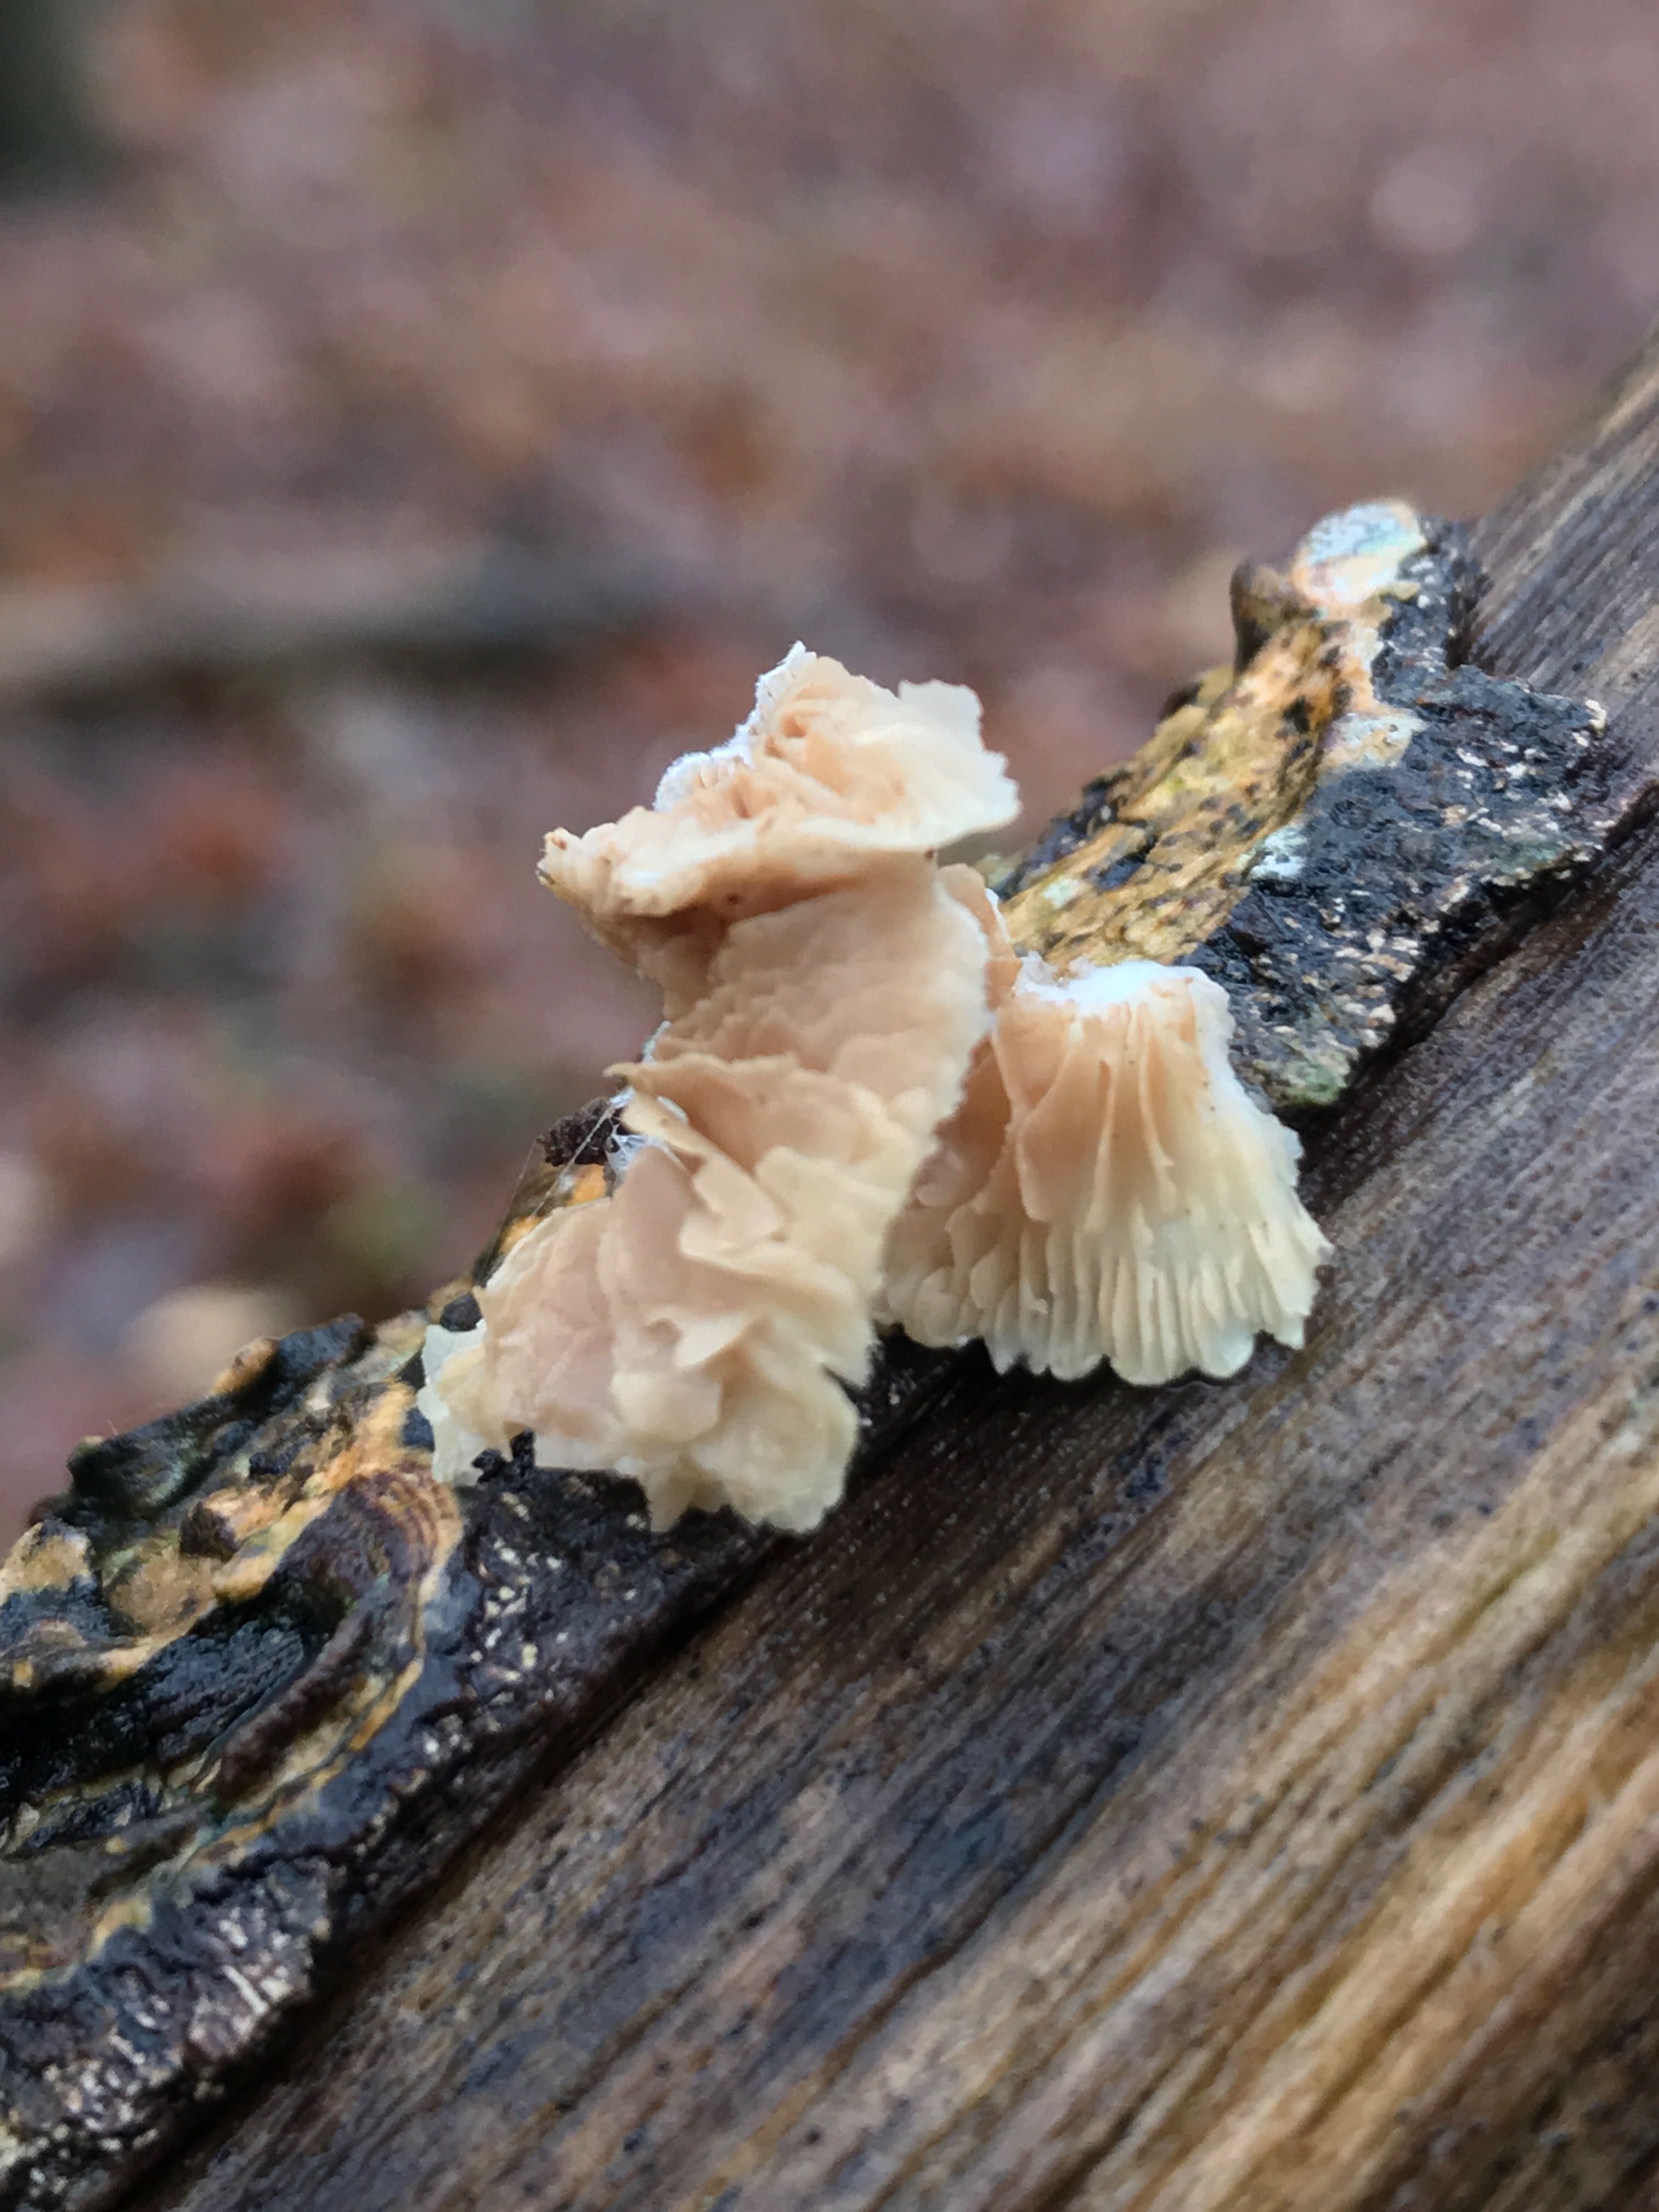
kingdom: Fungi
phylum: Basidiomycota
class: Agaricomycetes
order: Agaricales
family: Crepidotaceae
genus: Crepidotus
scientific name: Crepidotus
